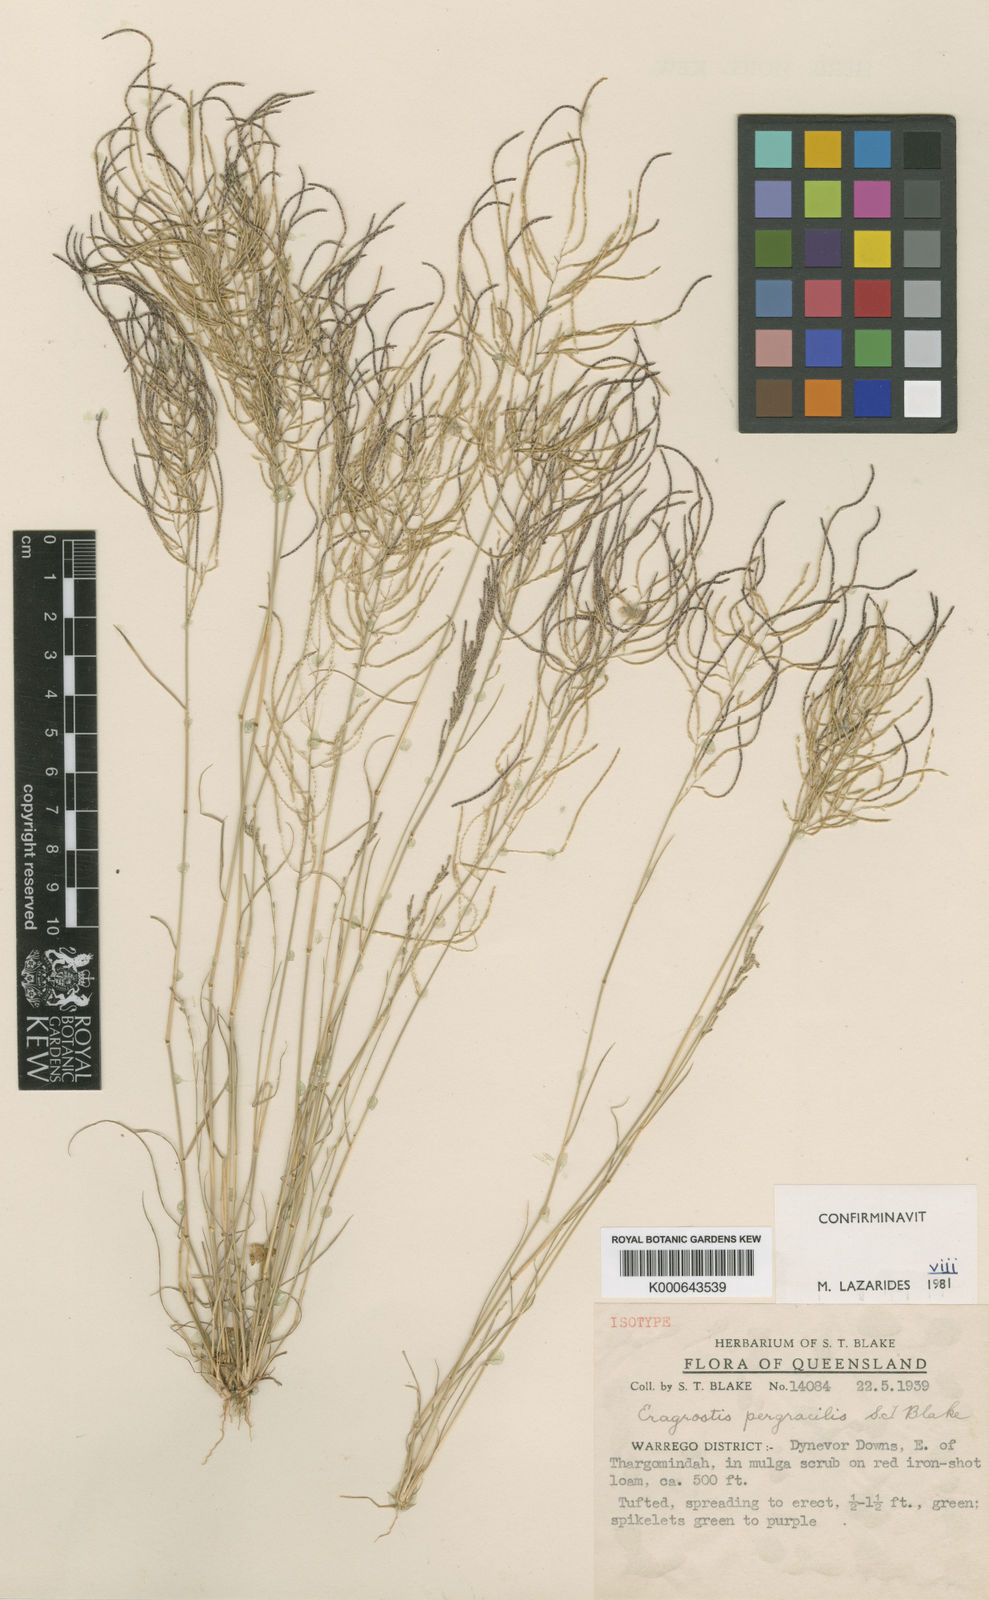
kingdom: Plantae
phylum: Tracheophyta
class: Liliopsida
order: Poales
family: Poaceae
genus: Eragrostis
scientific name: Eragrostis pergracilis
